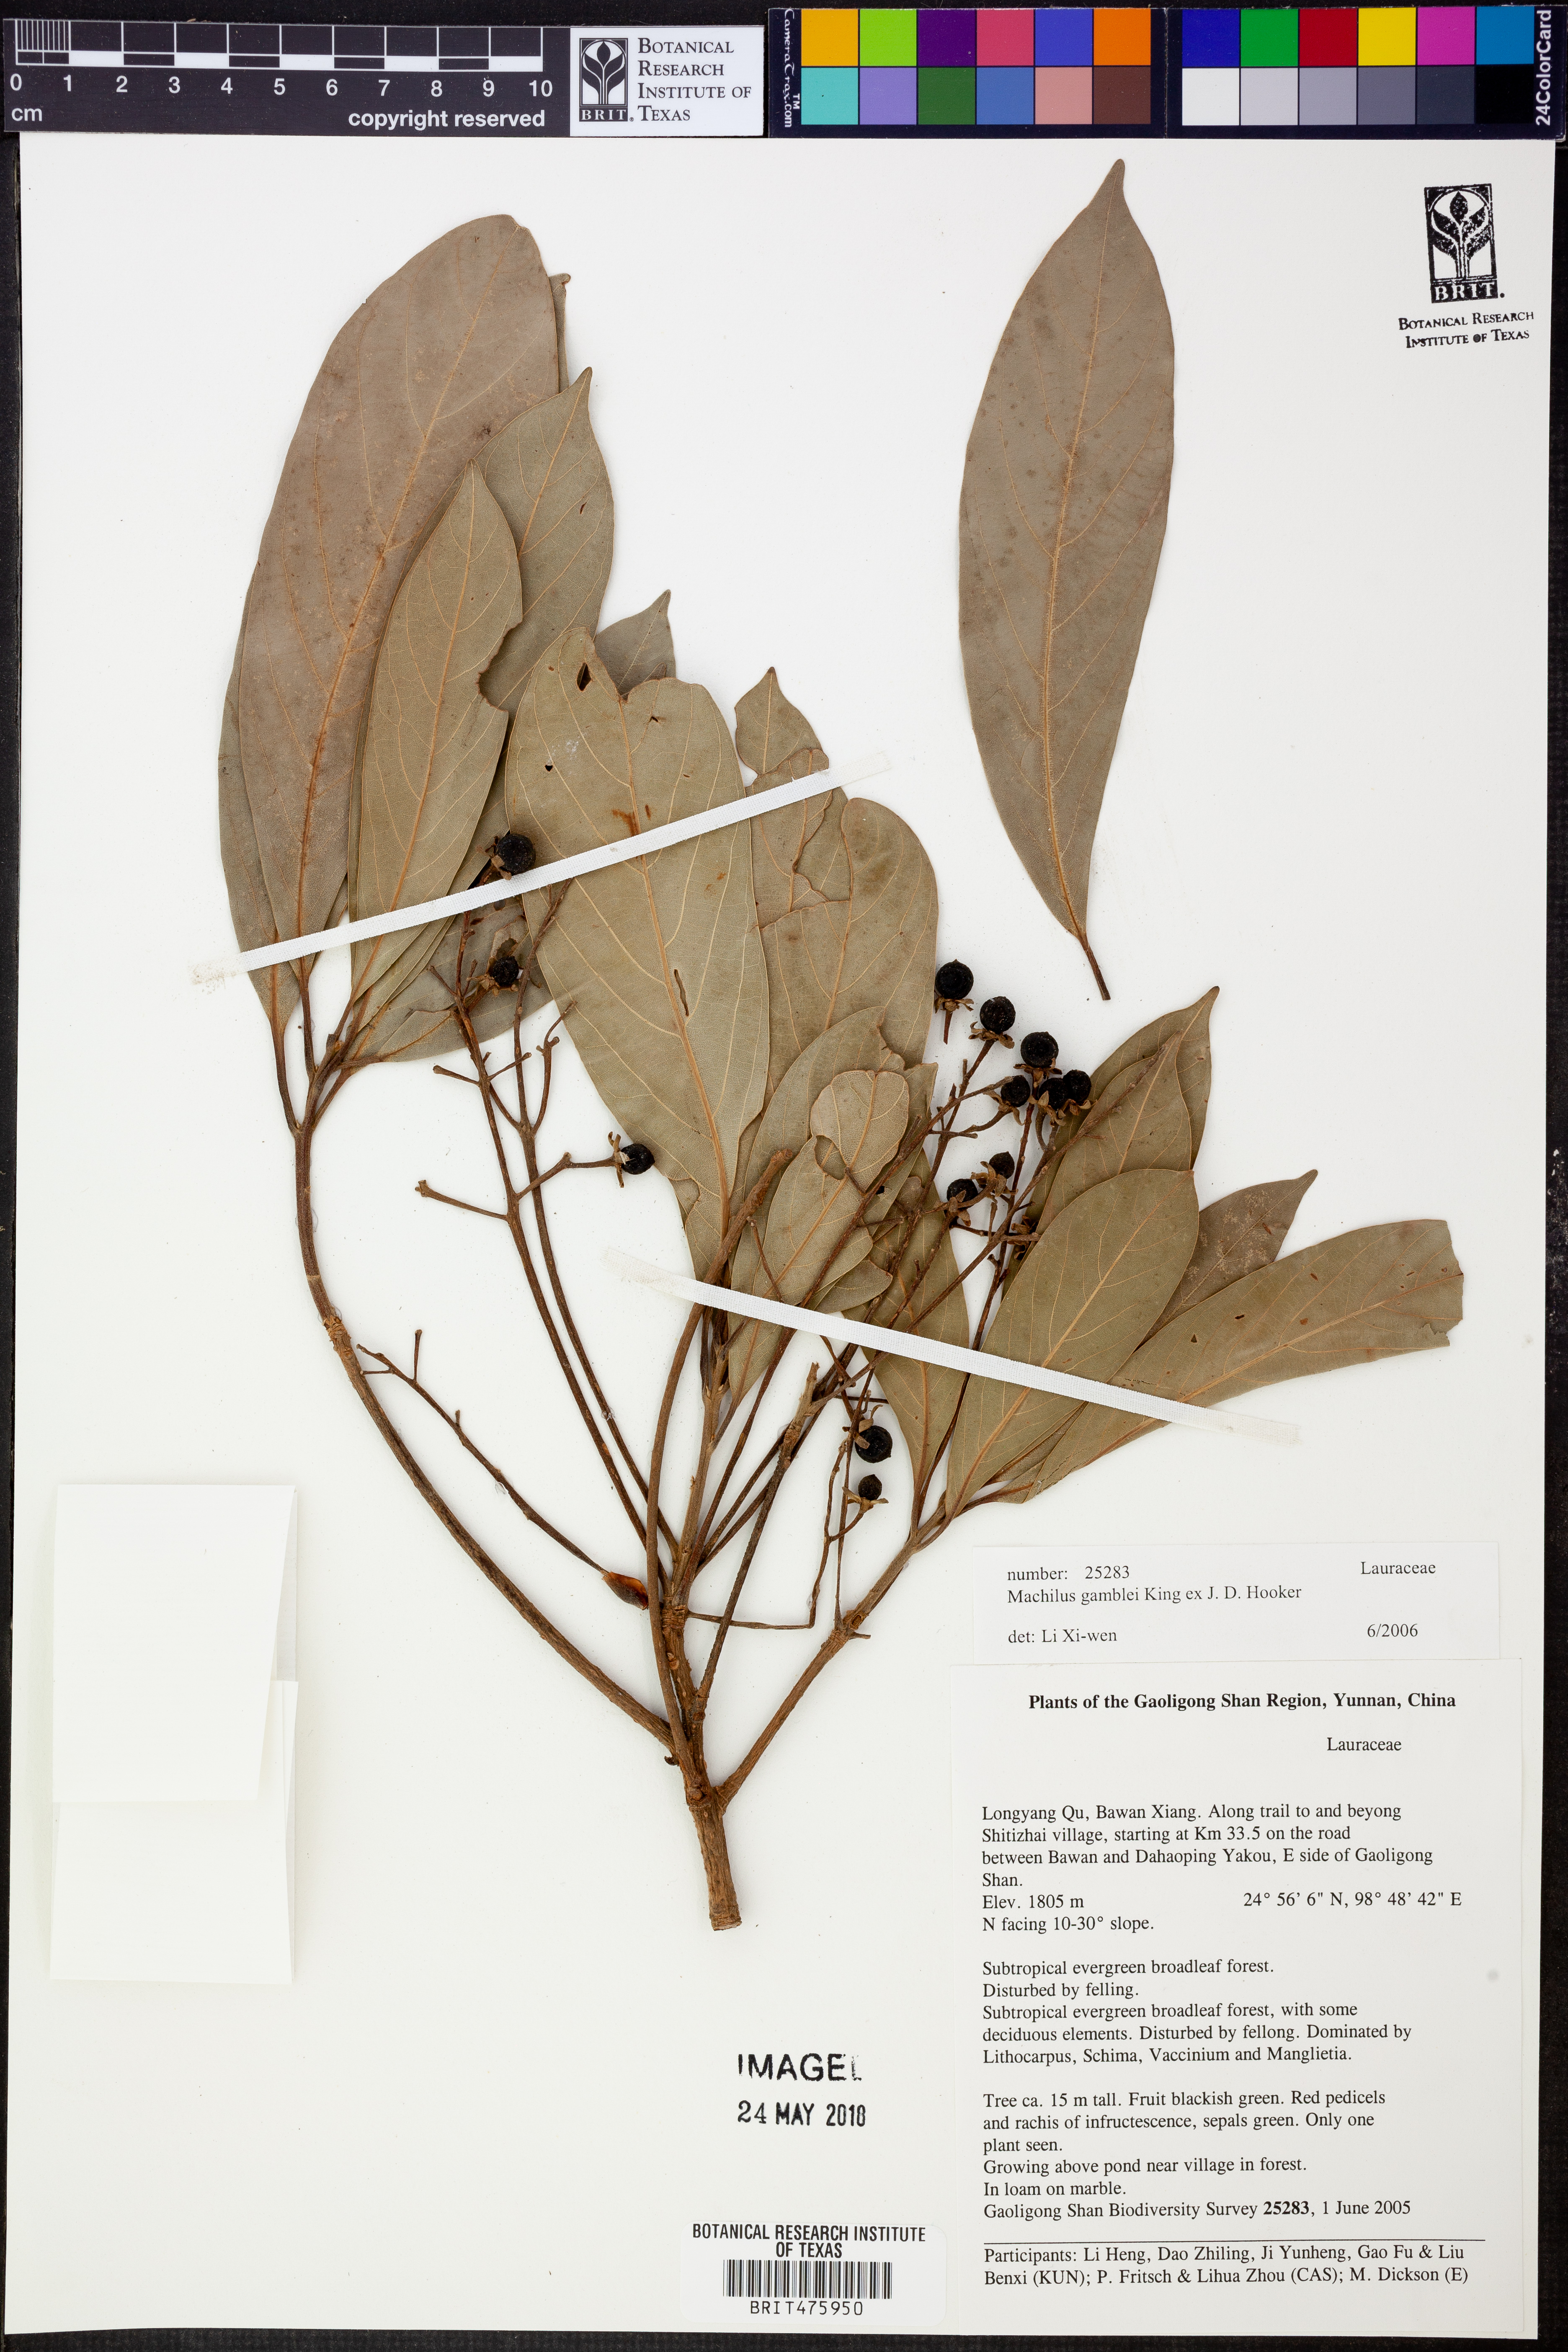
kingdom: Plantae
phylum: Tracheophyta
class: Magnoliopsida
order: Laurales
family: Lauraceae
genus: Machilus
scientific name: Machilus gamblei
